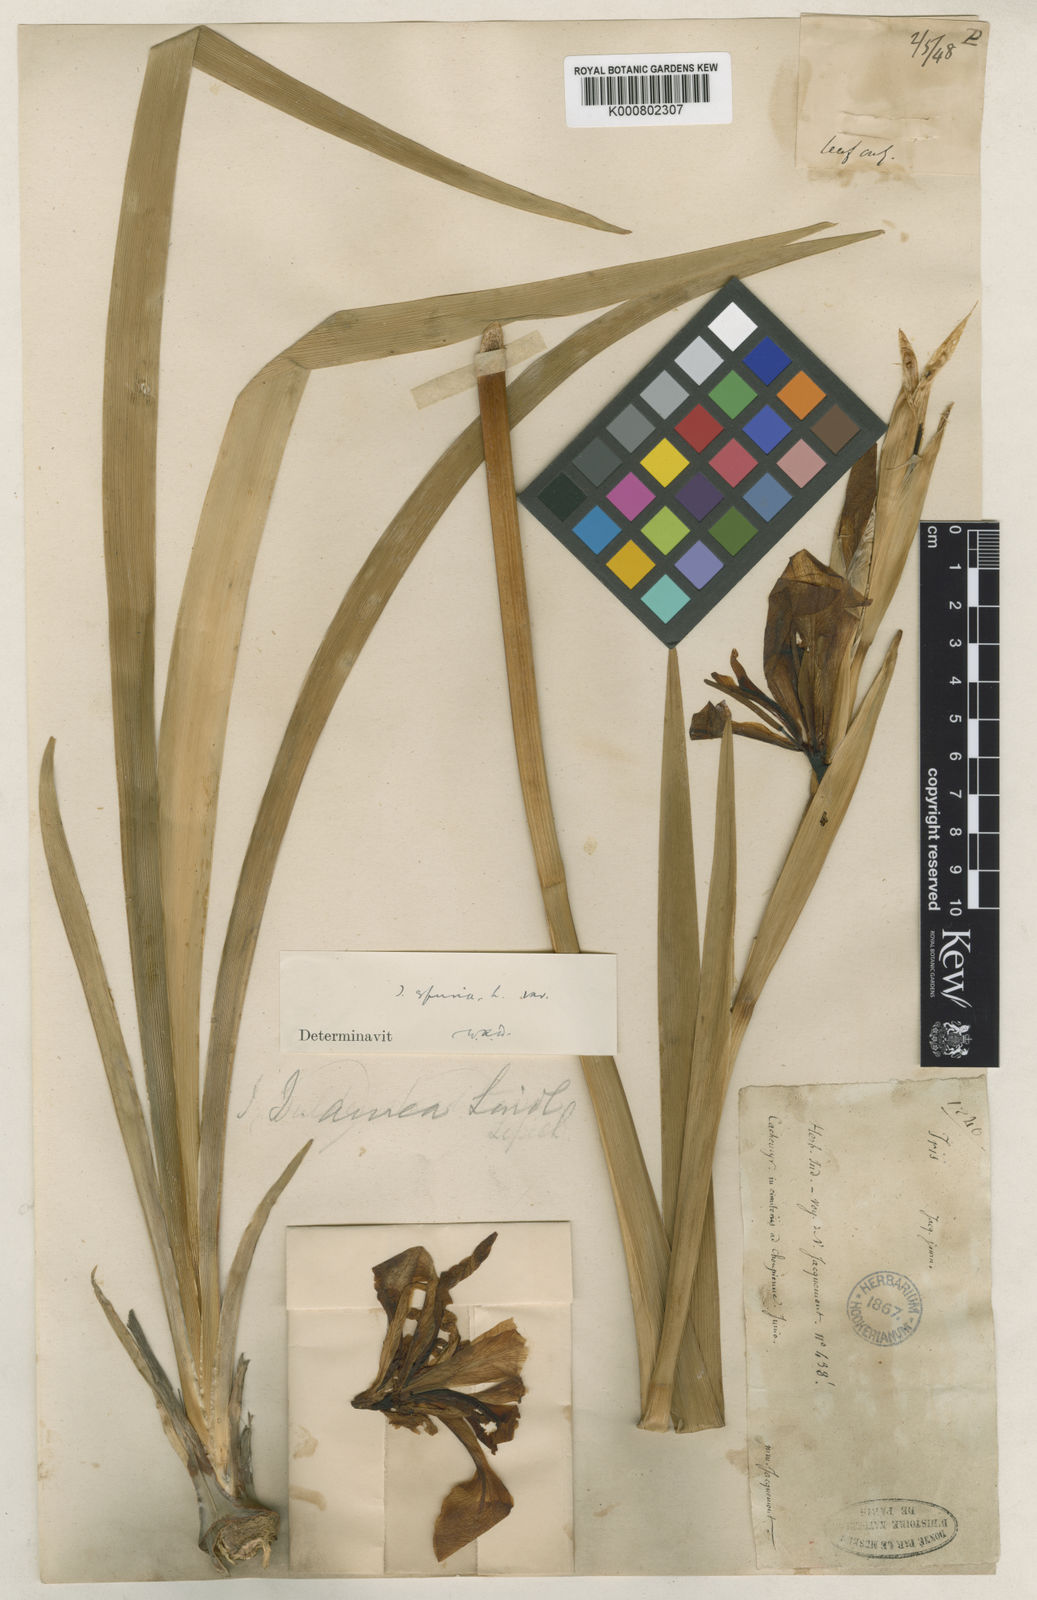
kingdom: Plantae
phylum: Tracheophyta
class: Liliopsida
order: Asparagales
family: Iridaceae
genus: Iris
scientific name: Iris halophila
